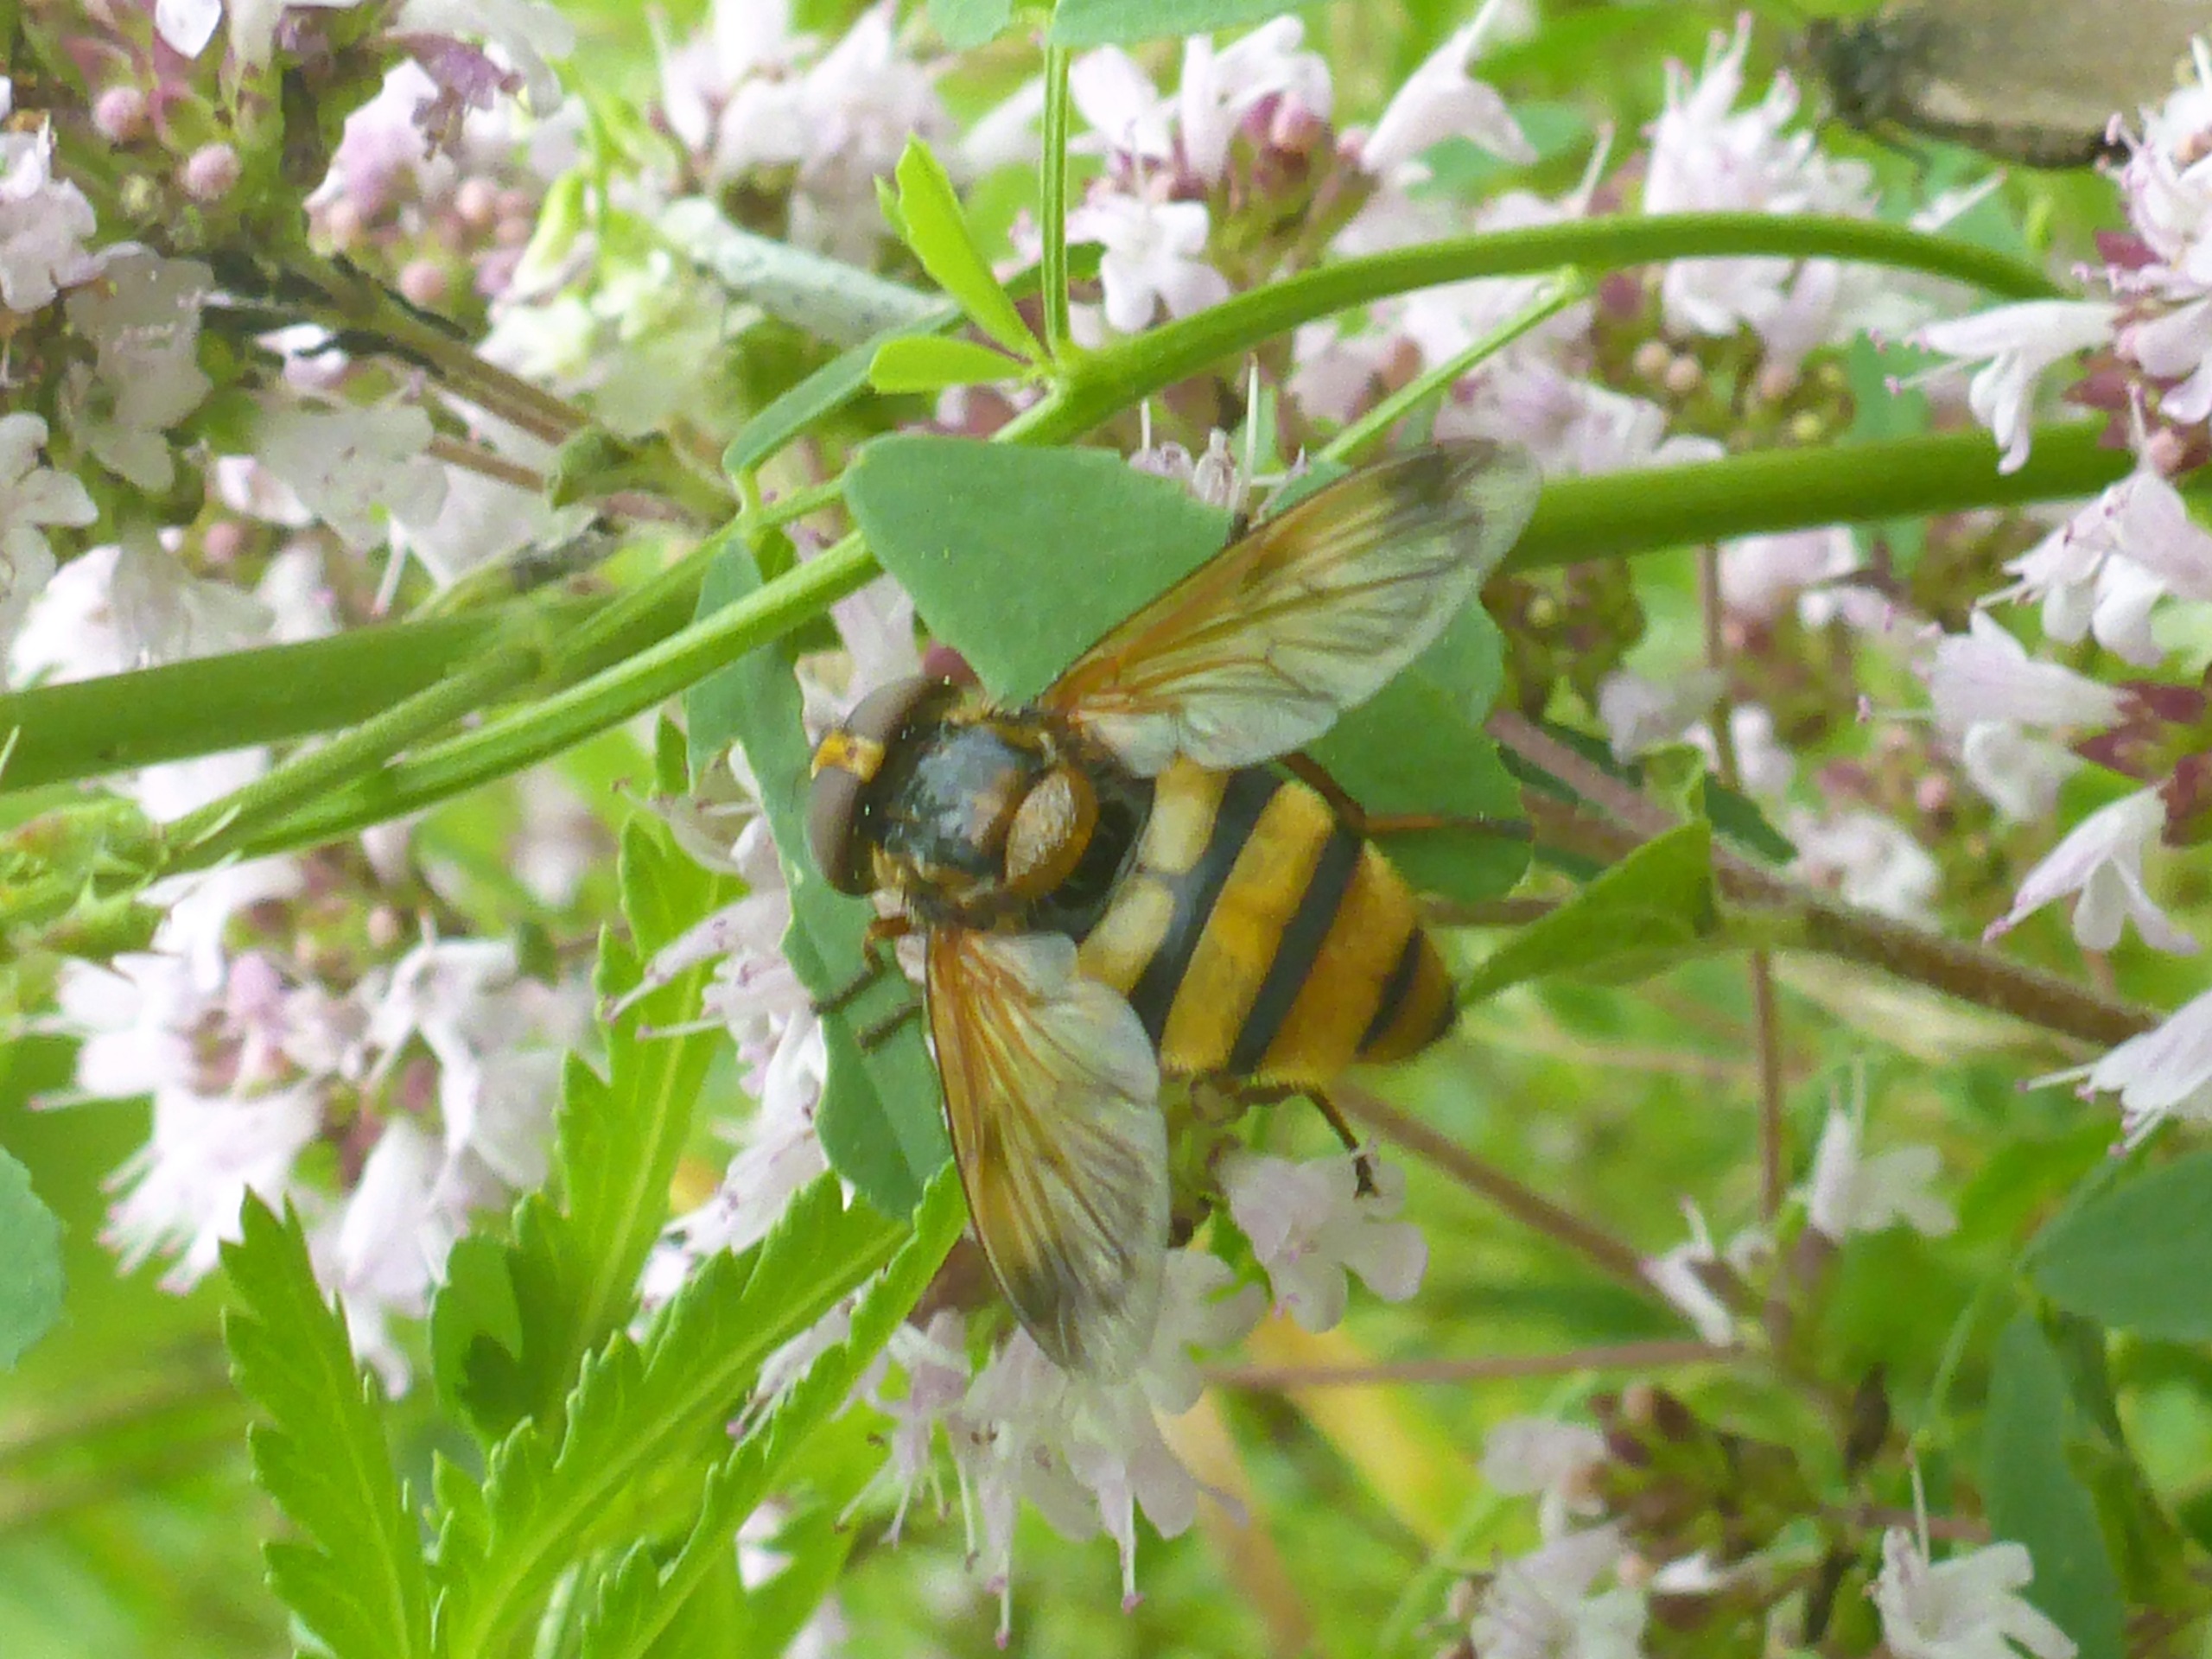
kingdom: Animalia
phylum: Arthropoda
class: Insecta
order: Diptera
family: Syrphidae
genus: Volucella
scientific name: Volucella inanis
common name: Gul humlesvirreflue
